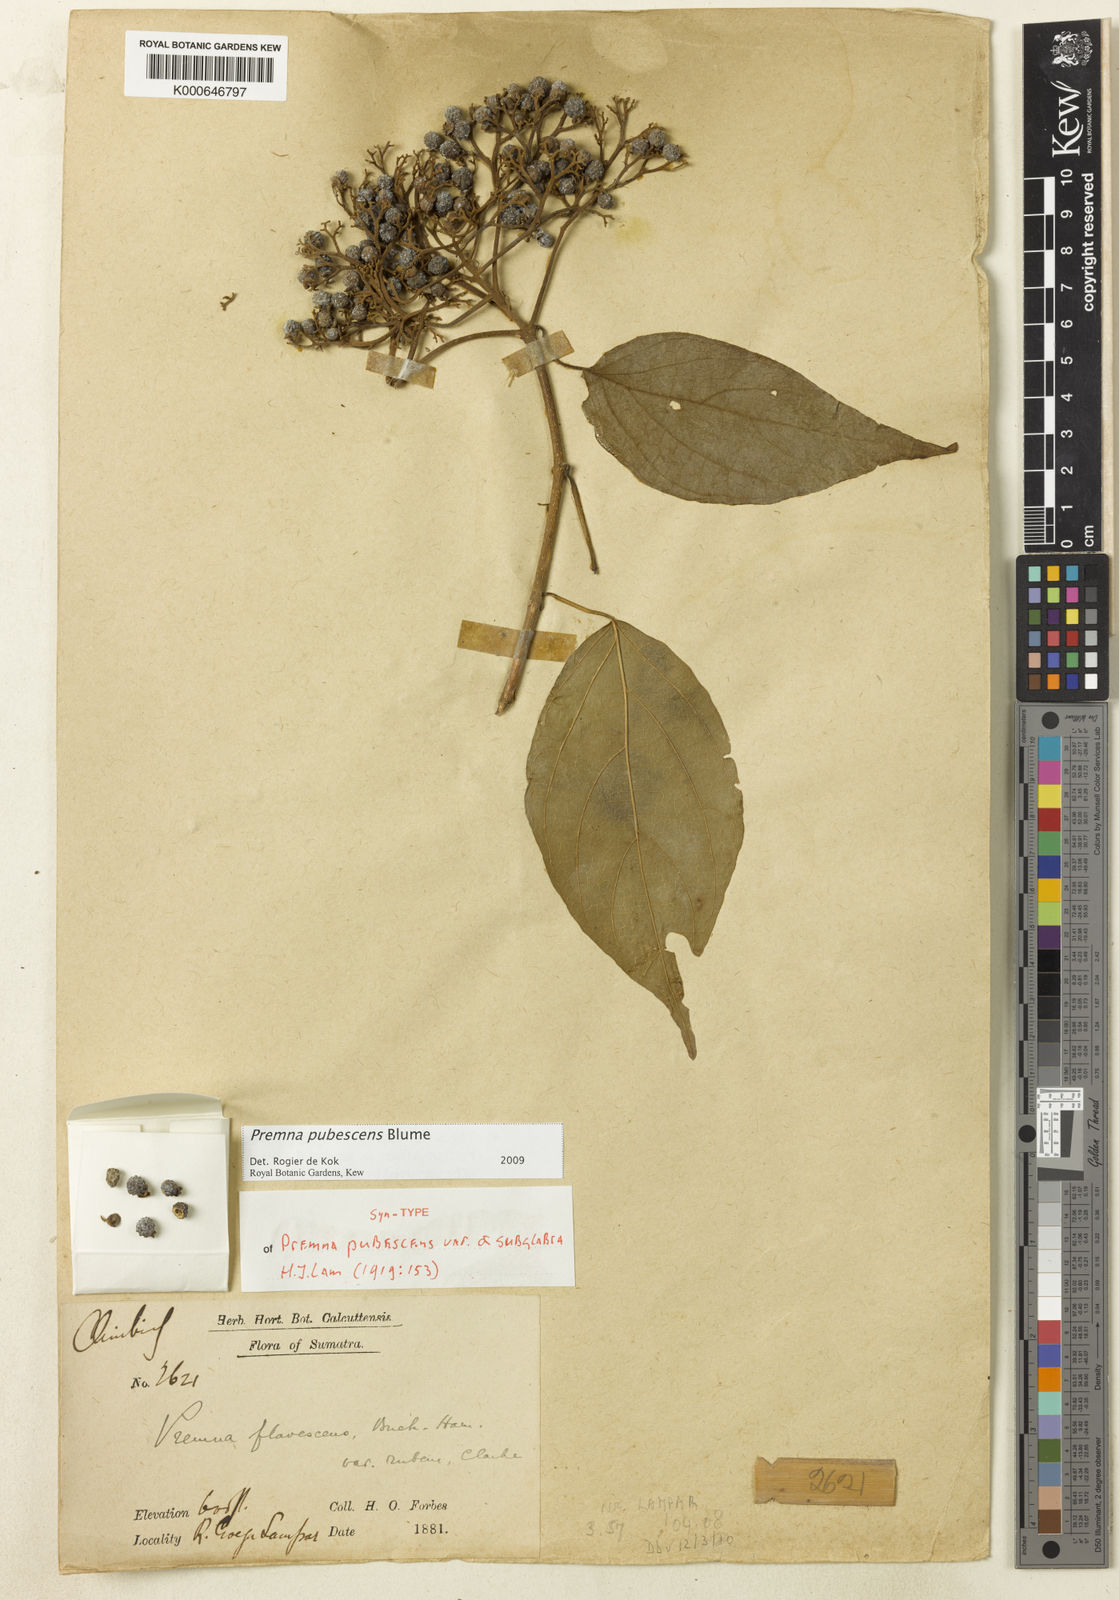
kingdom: Plantae
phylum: Tracheophyta
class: Magnoliopsida
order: Lamiales
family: Lamiaceae
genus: Premna
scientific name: Premna
